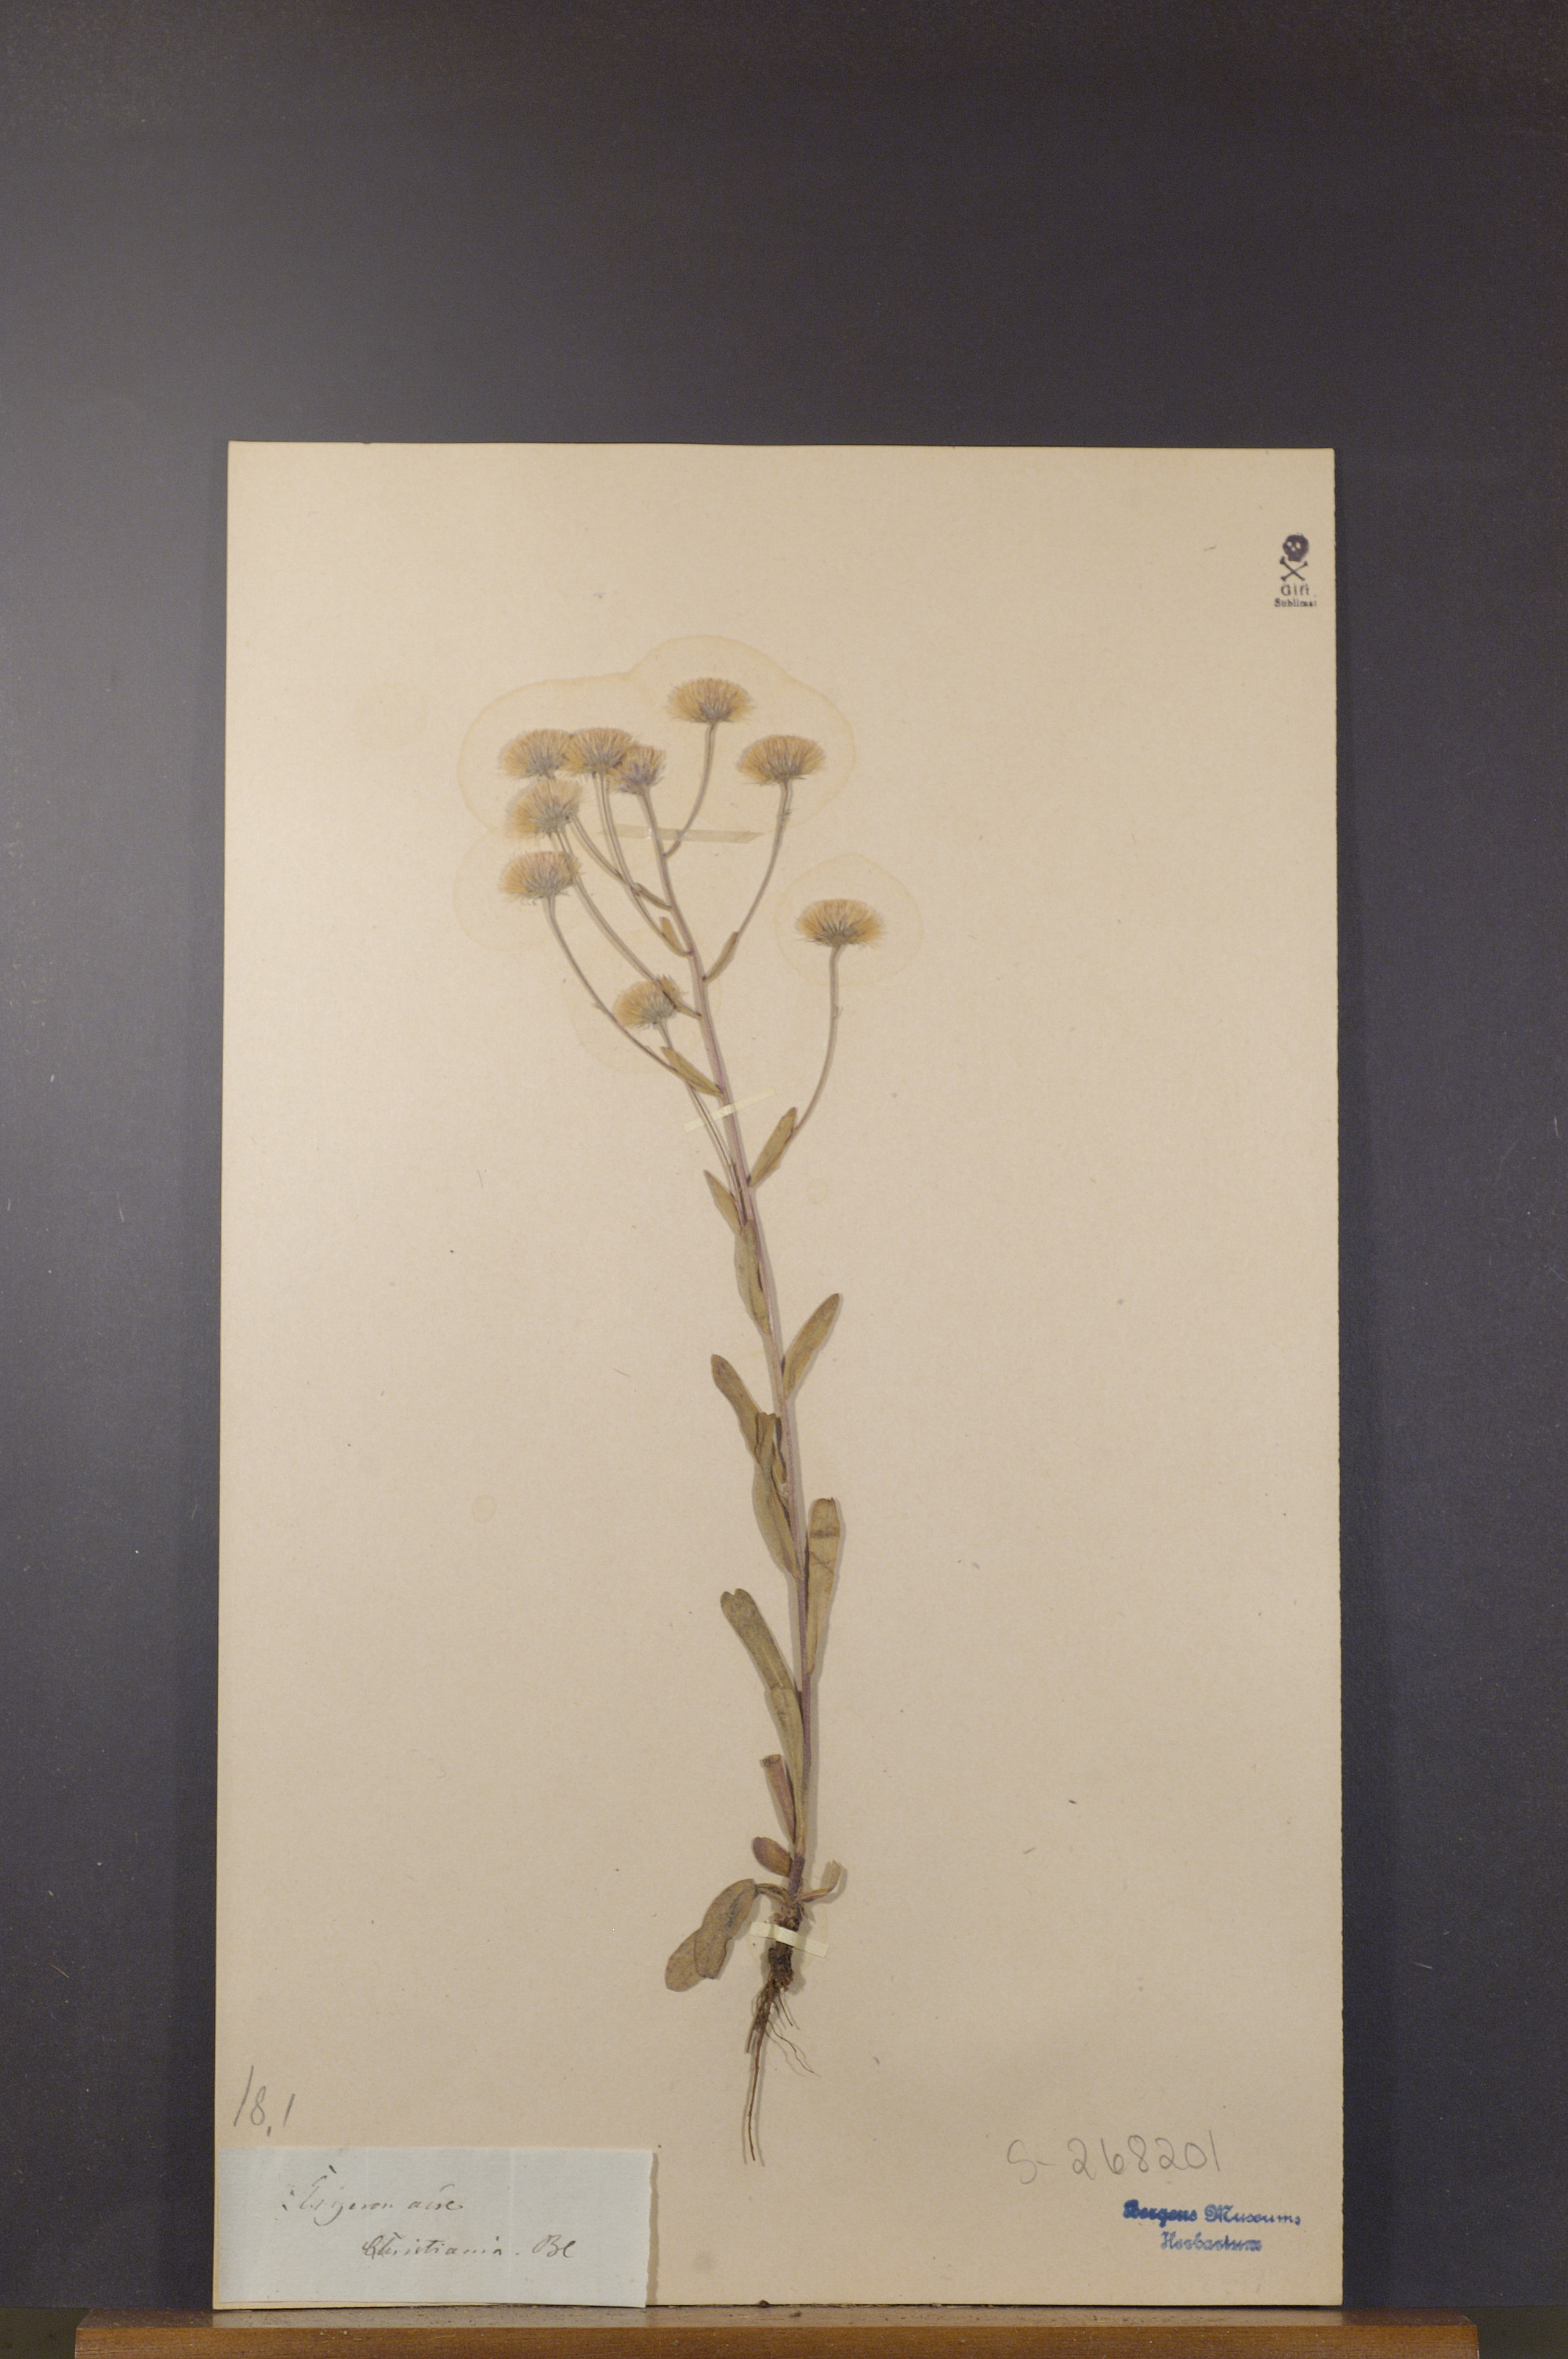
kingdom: Plantae
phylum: Tracheophyta
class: Magnoliopsida
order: Asterales
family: Asteraceae
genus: Erigeron
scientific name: Erigeron acris
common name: Blue fleabane
